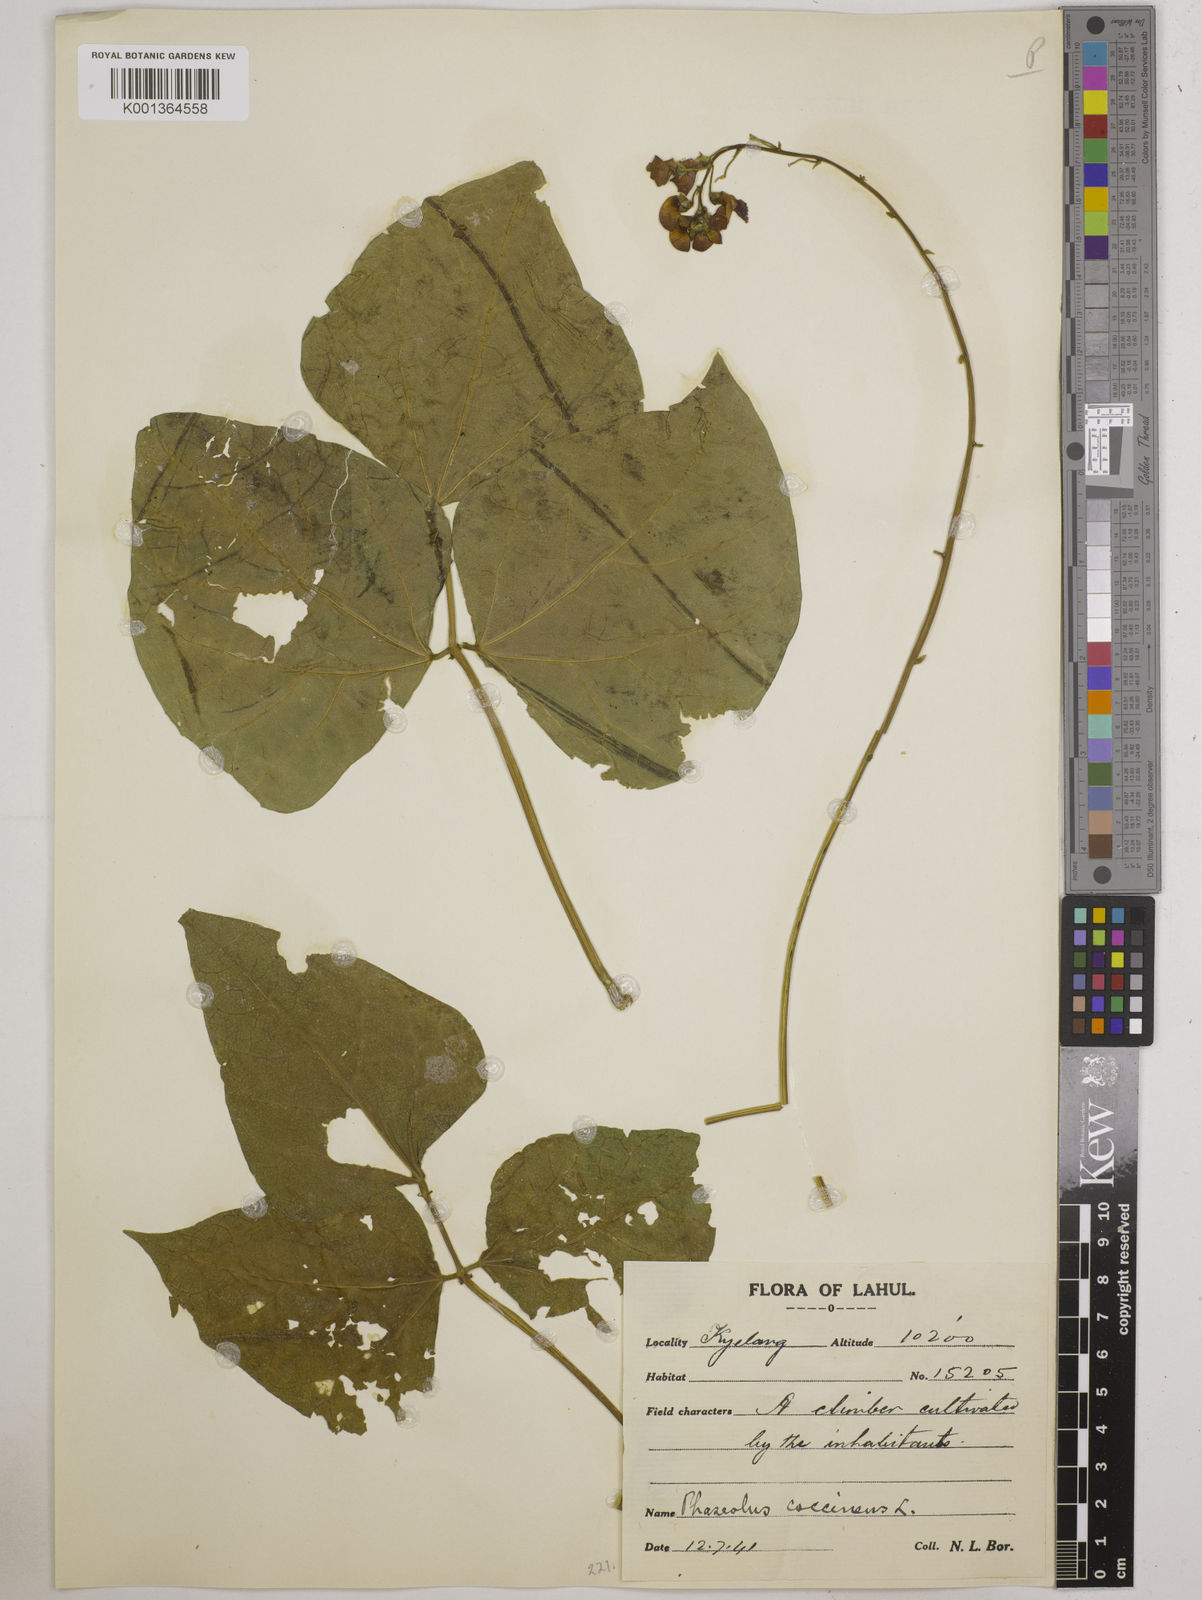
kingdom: Plantae
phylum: Tracheophyta
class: Magnoliopsida
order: Fabales
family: Fabaceae
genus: Phaseolus
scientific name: Phaseolus coccineus
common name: Runner bean
